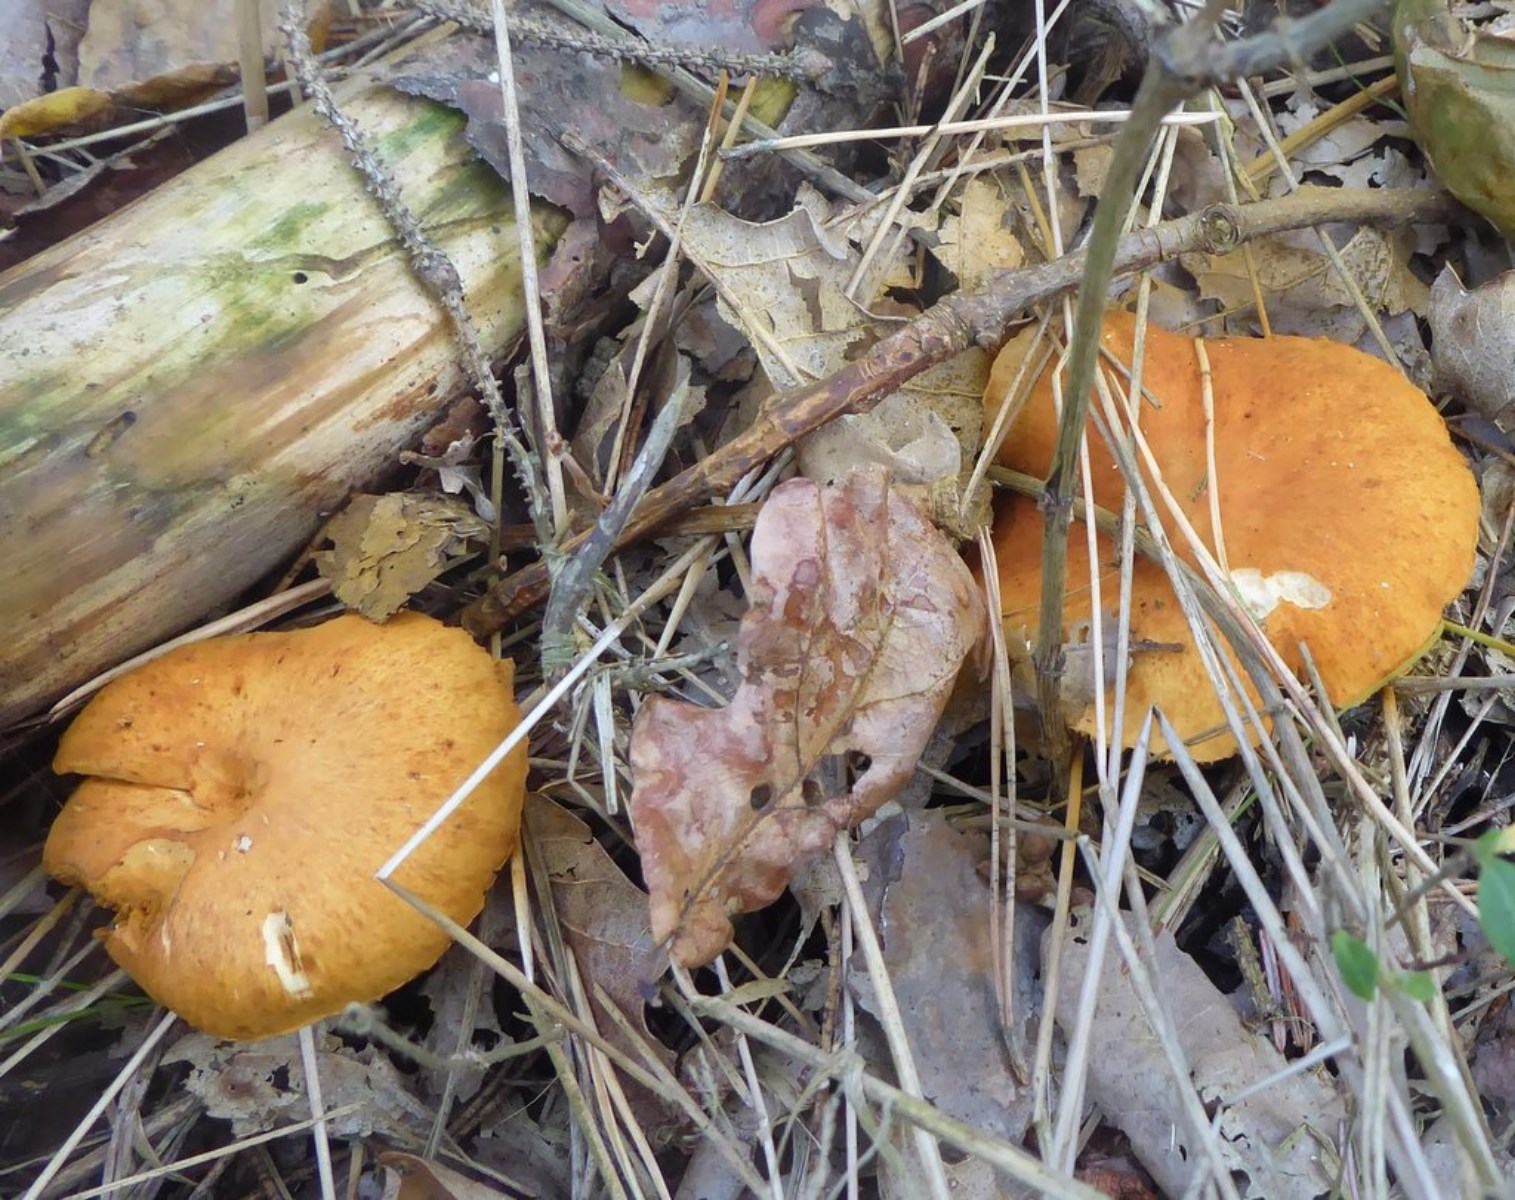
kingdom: Fungi
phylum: Basidiomycota
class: Agaricomycetes
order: Agaricales
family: Hymenogastraceae
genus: Gymnopilus
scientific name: Gymnopilus penetrans
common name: plettet flammehat
